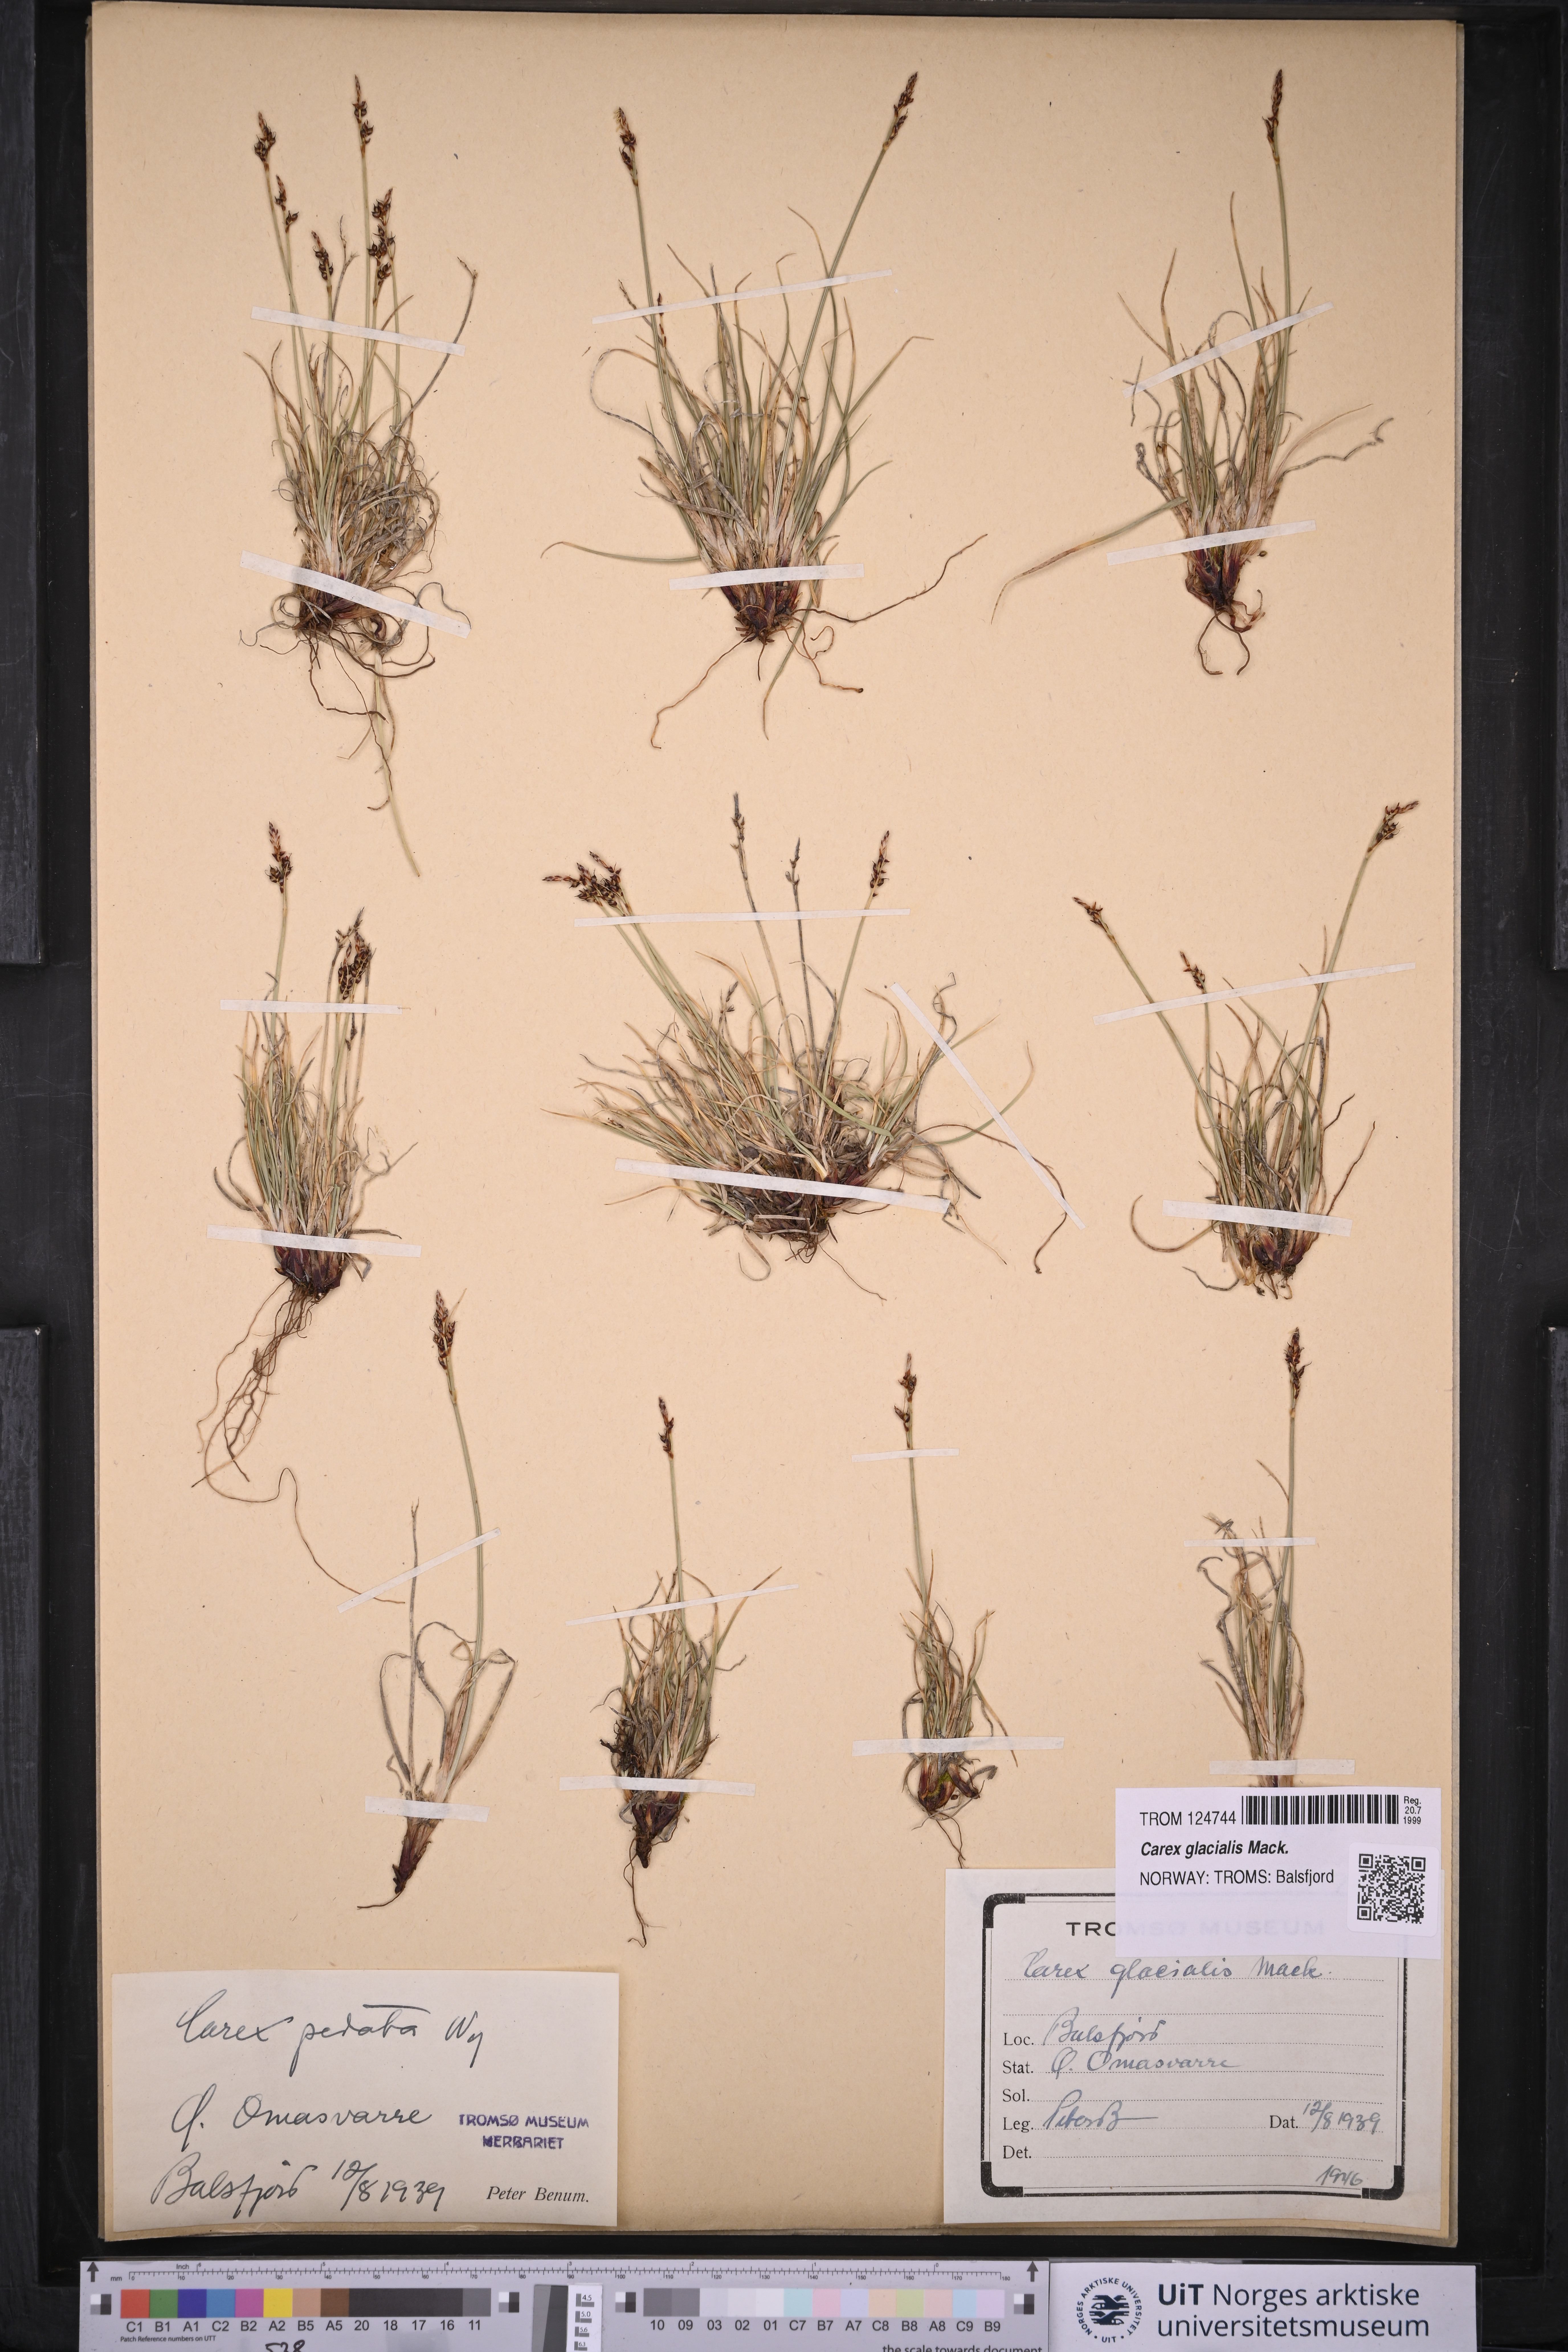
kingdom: Plantae
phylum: Tracheophyta
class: Liliopsida
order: Poales
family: Cyperaceae
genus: Carex
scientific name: Carex glacialis
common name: Newfoundland sedge
